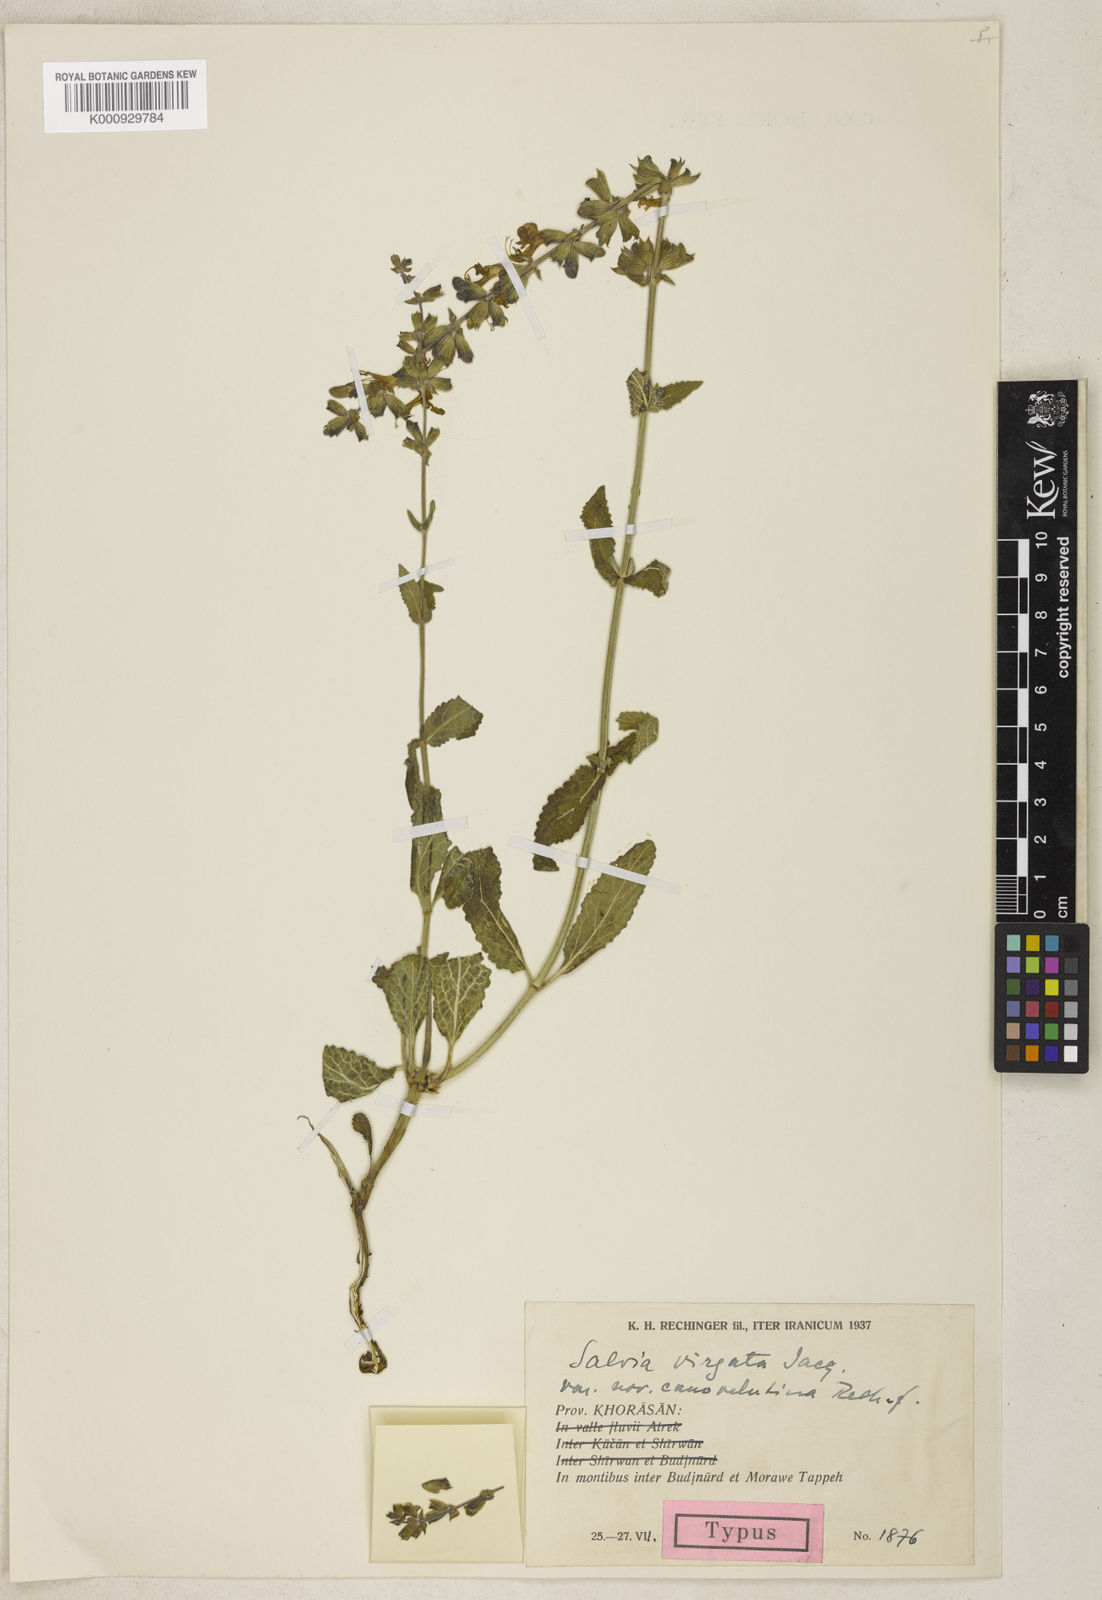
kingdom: Plantae
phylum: Tracheophyta
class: Magnoliopsida
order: Lamiales
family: Lamiaceae
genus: Salvia
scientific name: Salvia virgata
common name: Wand sage
